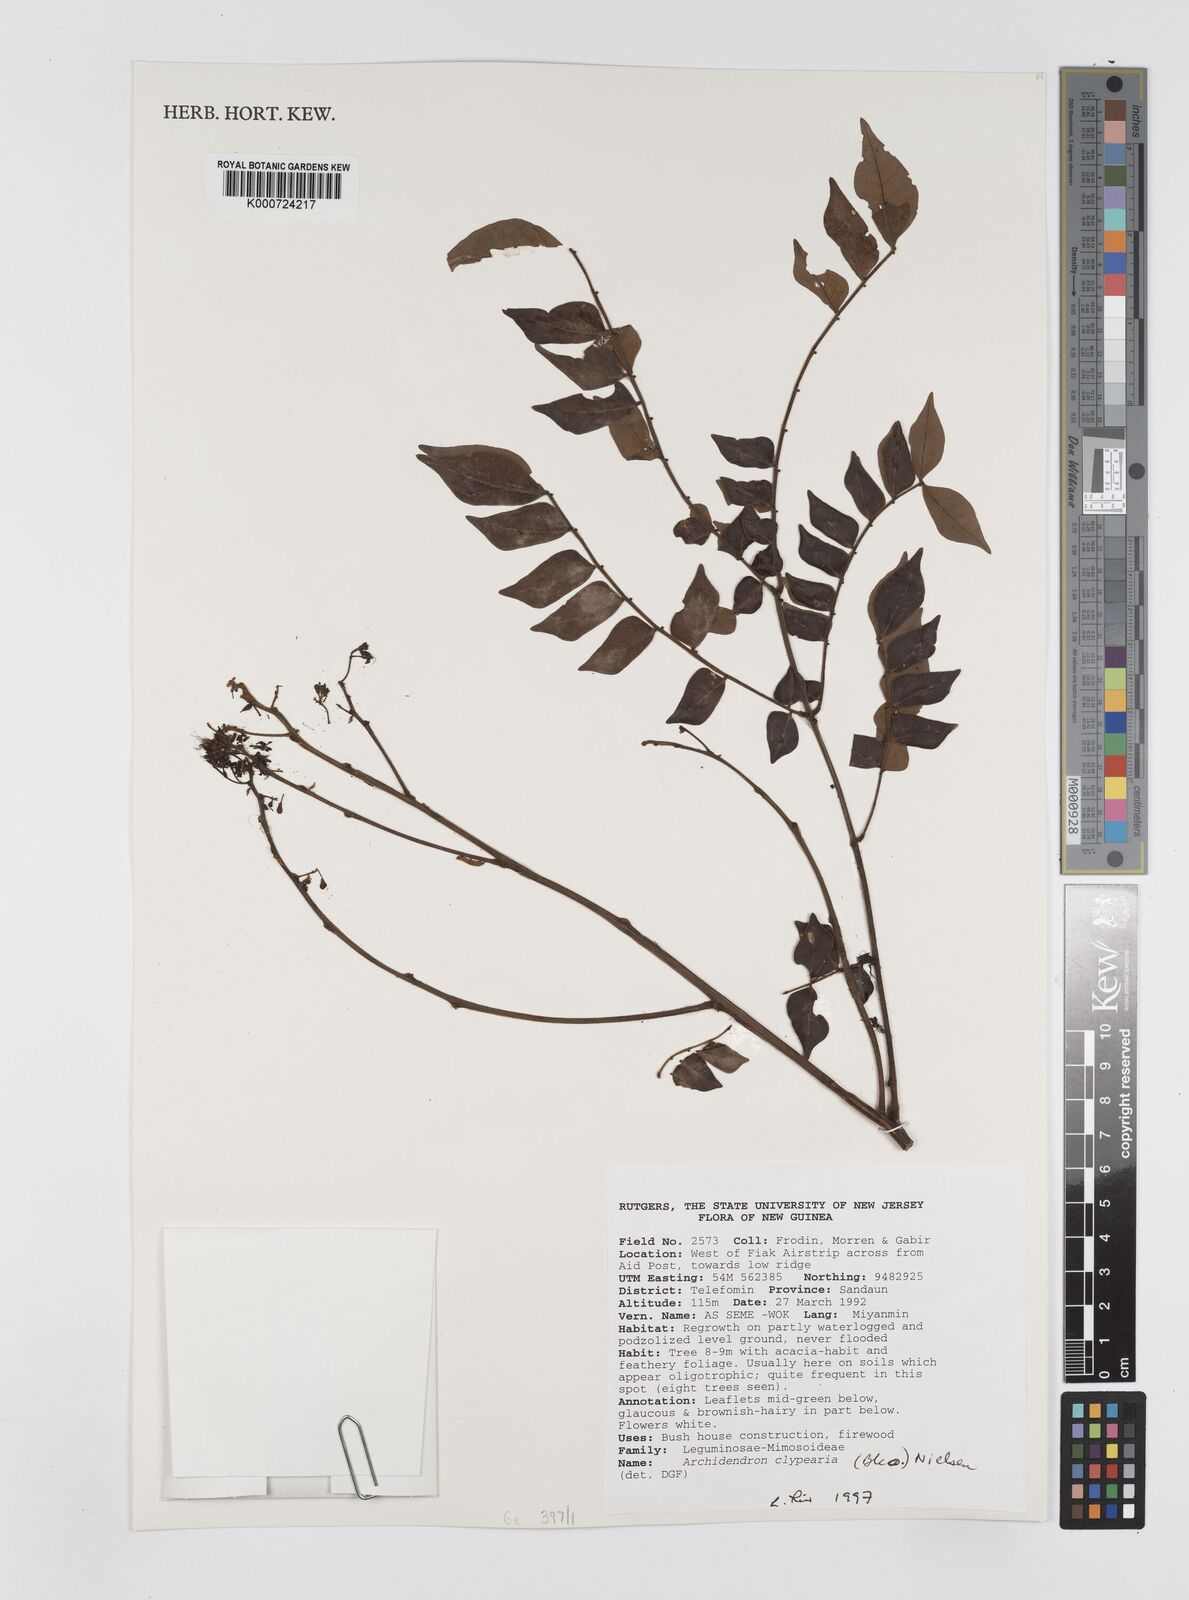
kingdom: Plantae
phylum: Tracheophyta
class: Magnoliopsida
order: Fabales
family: Fabaceae
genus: Archidendron
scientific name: Archidendron clypearia
